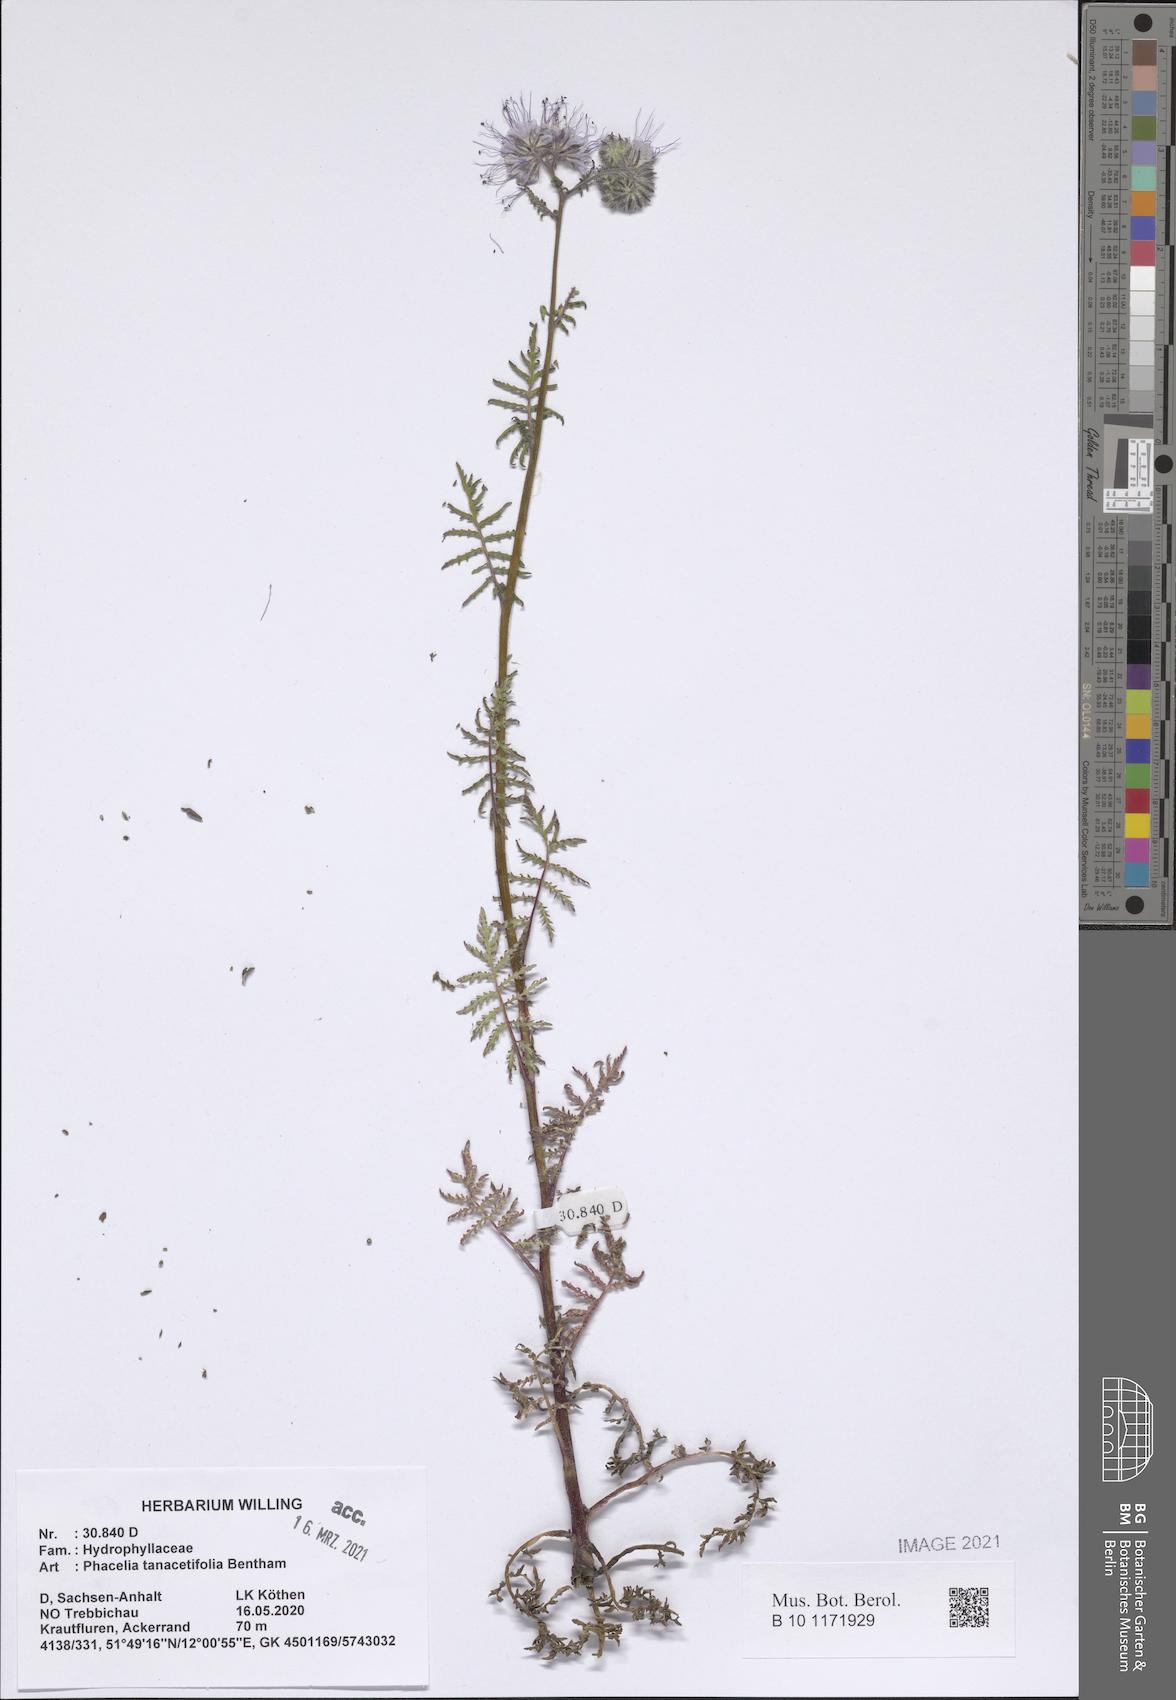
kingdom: Plantae
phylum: Tracheophyta
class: Magnoliopsida
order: Boraginales
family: Hydrophyllaceae
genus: Phacelia
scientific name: Phacelia tanacetifolia
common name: Phacelia
